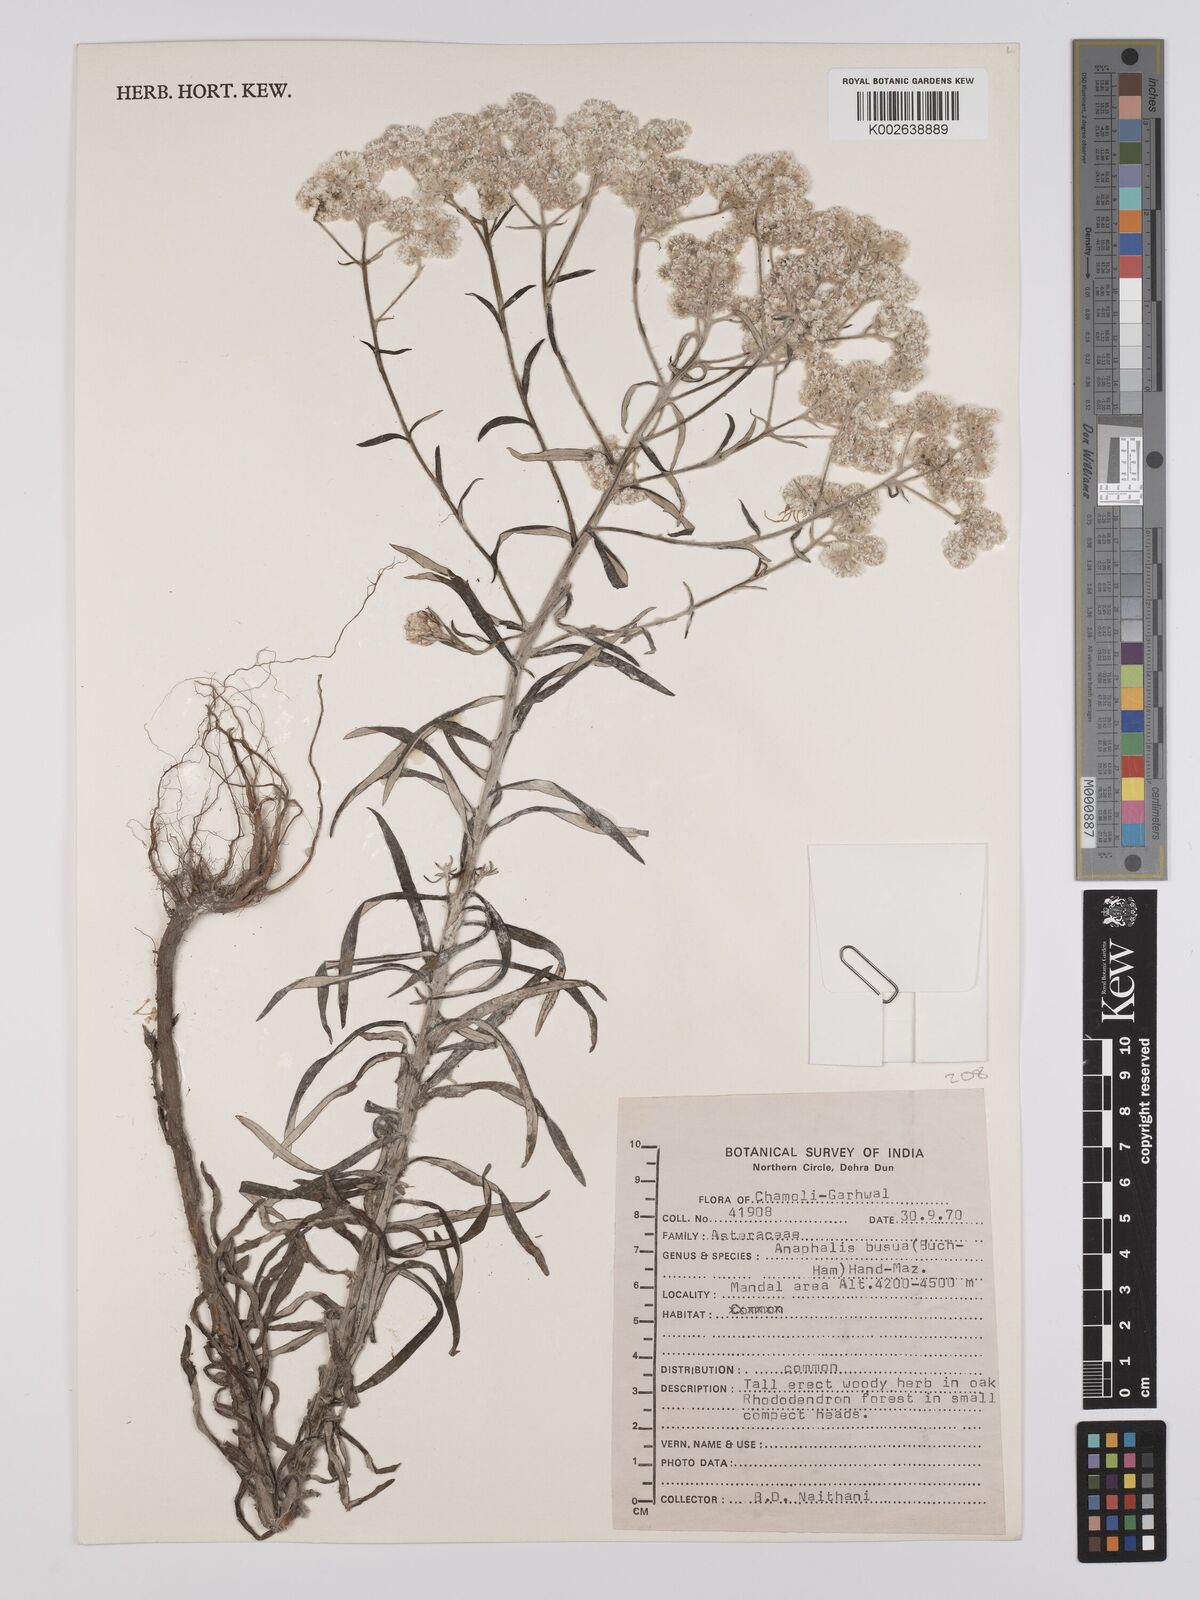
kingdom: Plantae
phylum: Tracheophyta
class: Magnoliopsida
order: Asterales
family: Asteraceae
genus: Anaphalis
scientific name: Anaphalis busua
